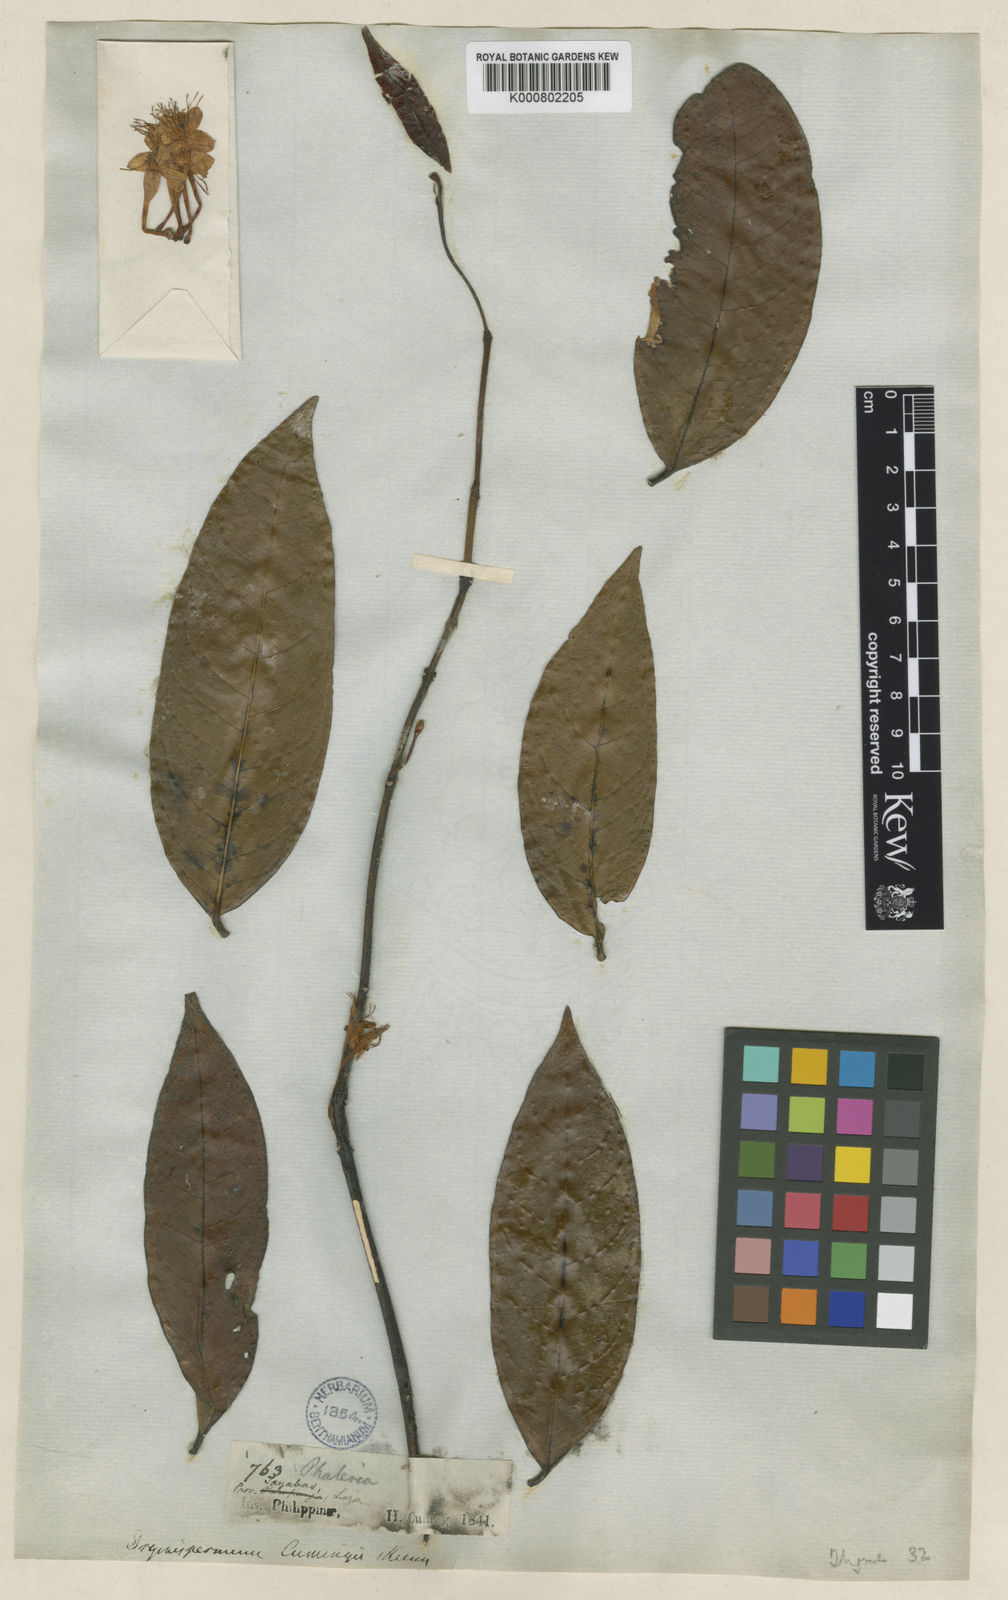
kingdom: Plantae
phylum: Tracheophyta
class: Magnoliopsida
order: Malvales
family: Thymelaeaceae
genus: Phaleria
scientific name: Phaleria capitata
